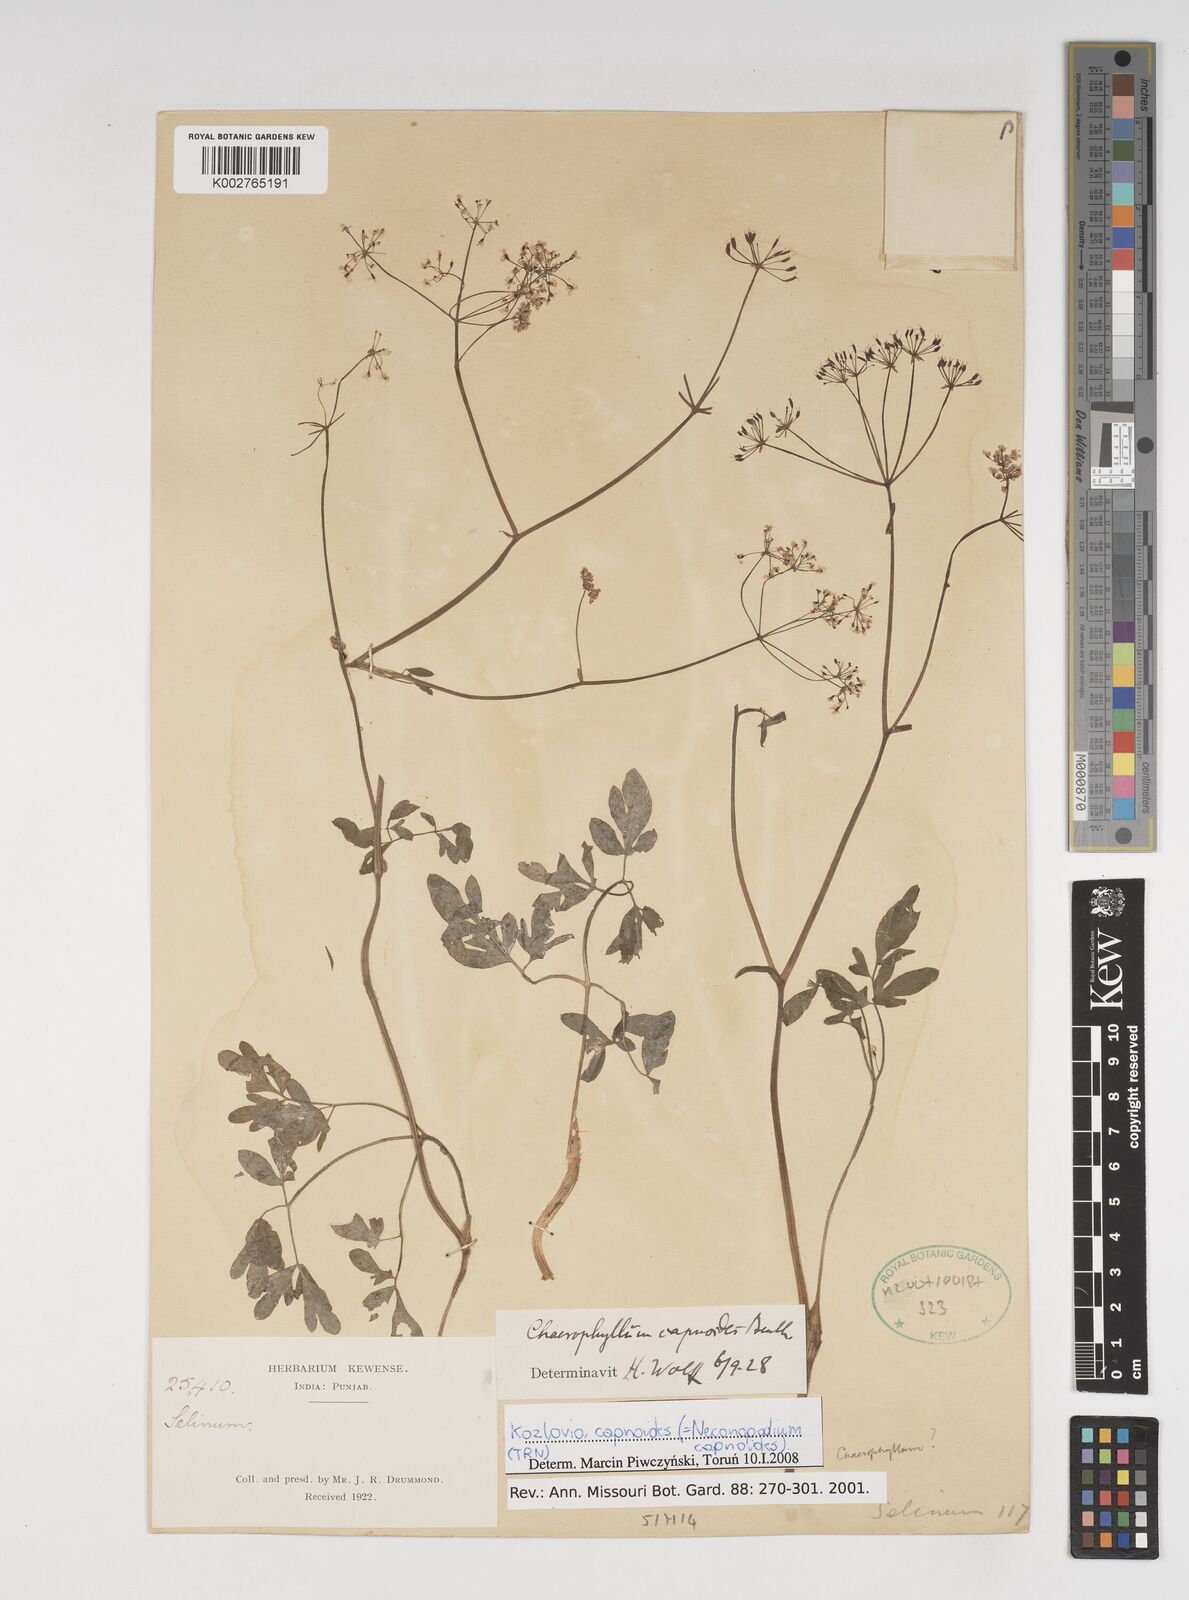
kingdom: Plantae
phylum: Tracheophyta
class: Magnoliopsida
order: Apiales
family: Apiaceae
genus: Kozlovia
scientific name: Kozlovia capnoides
